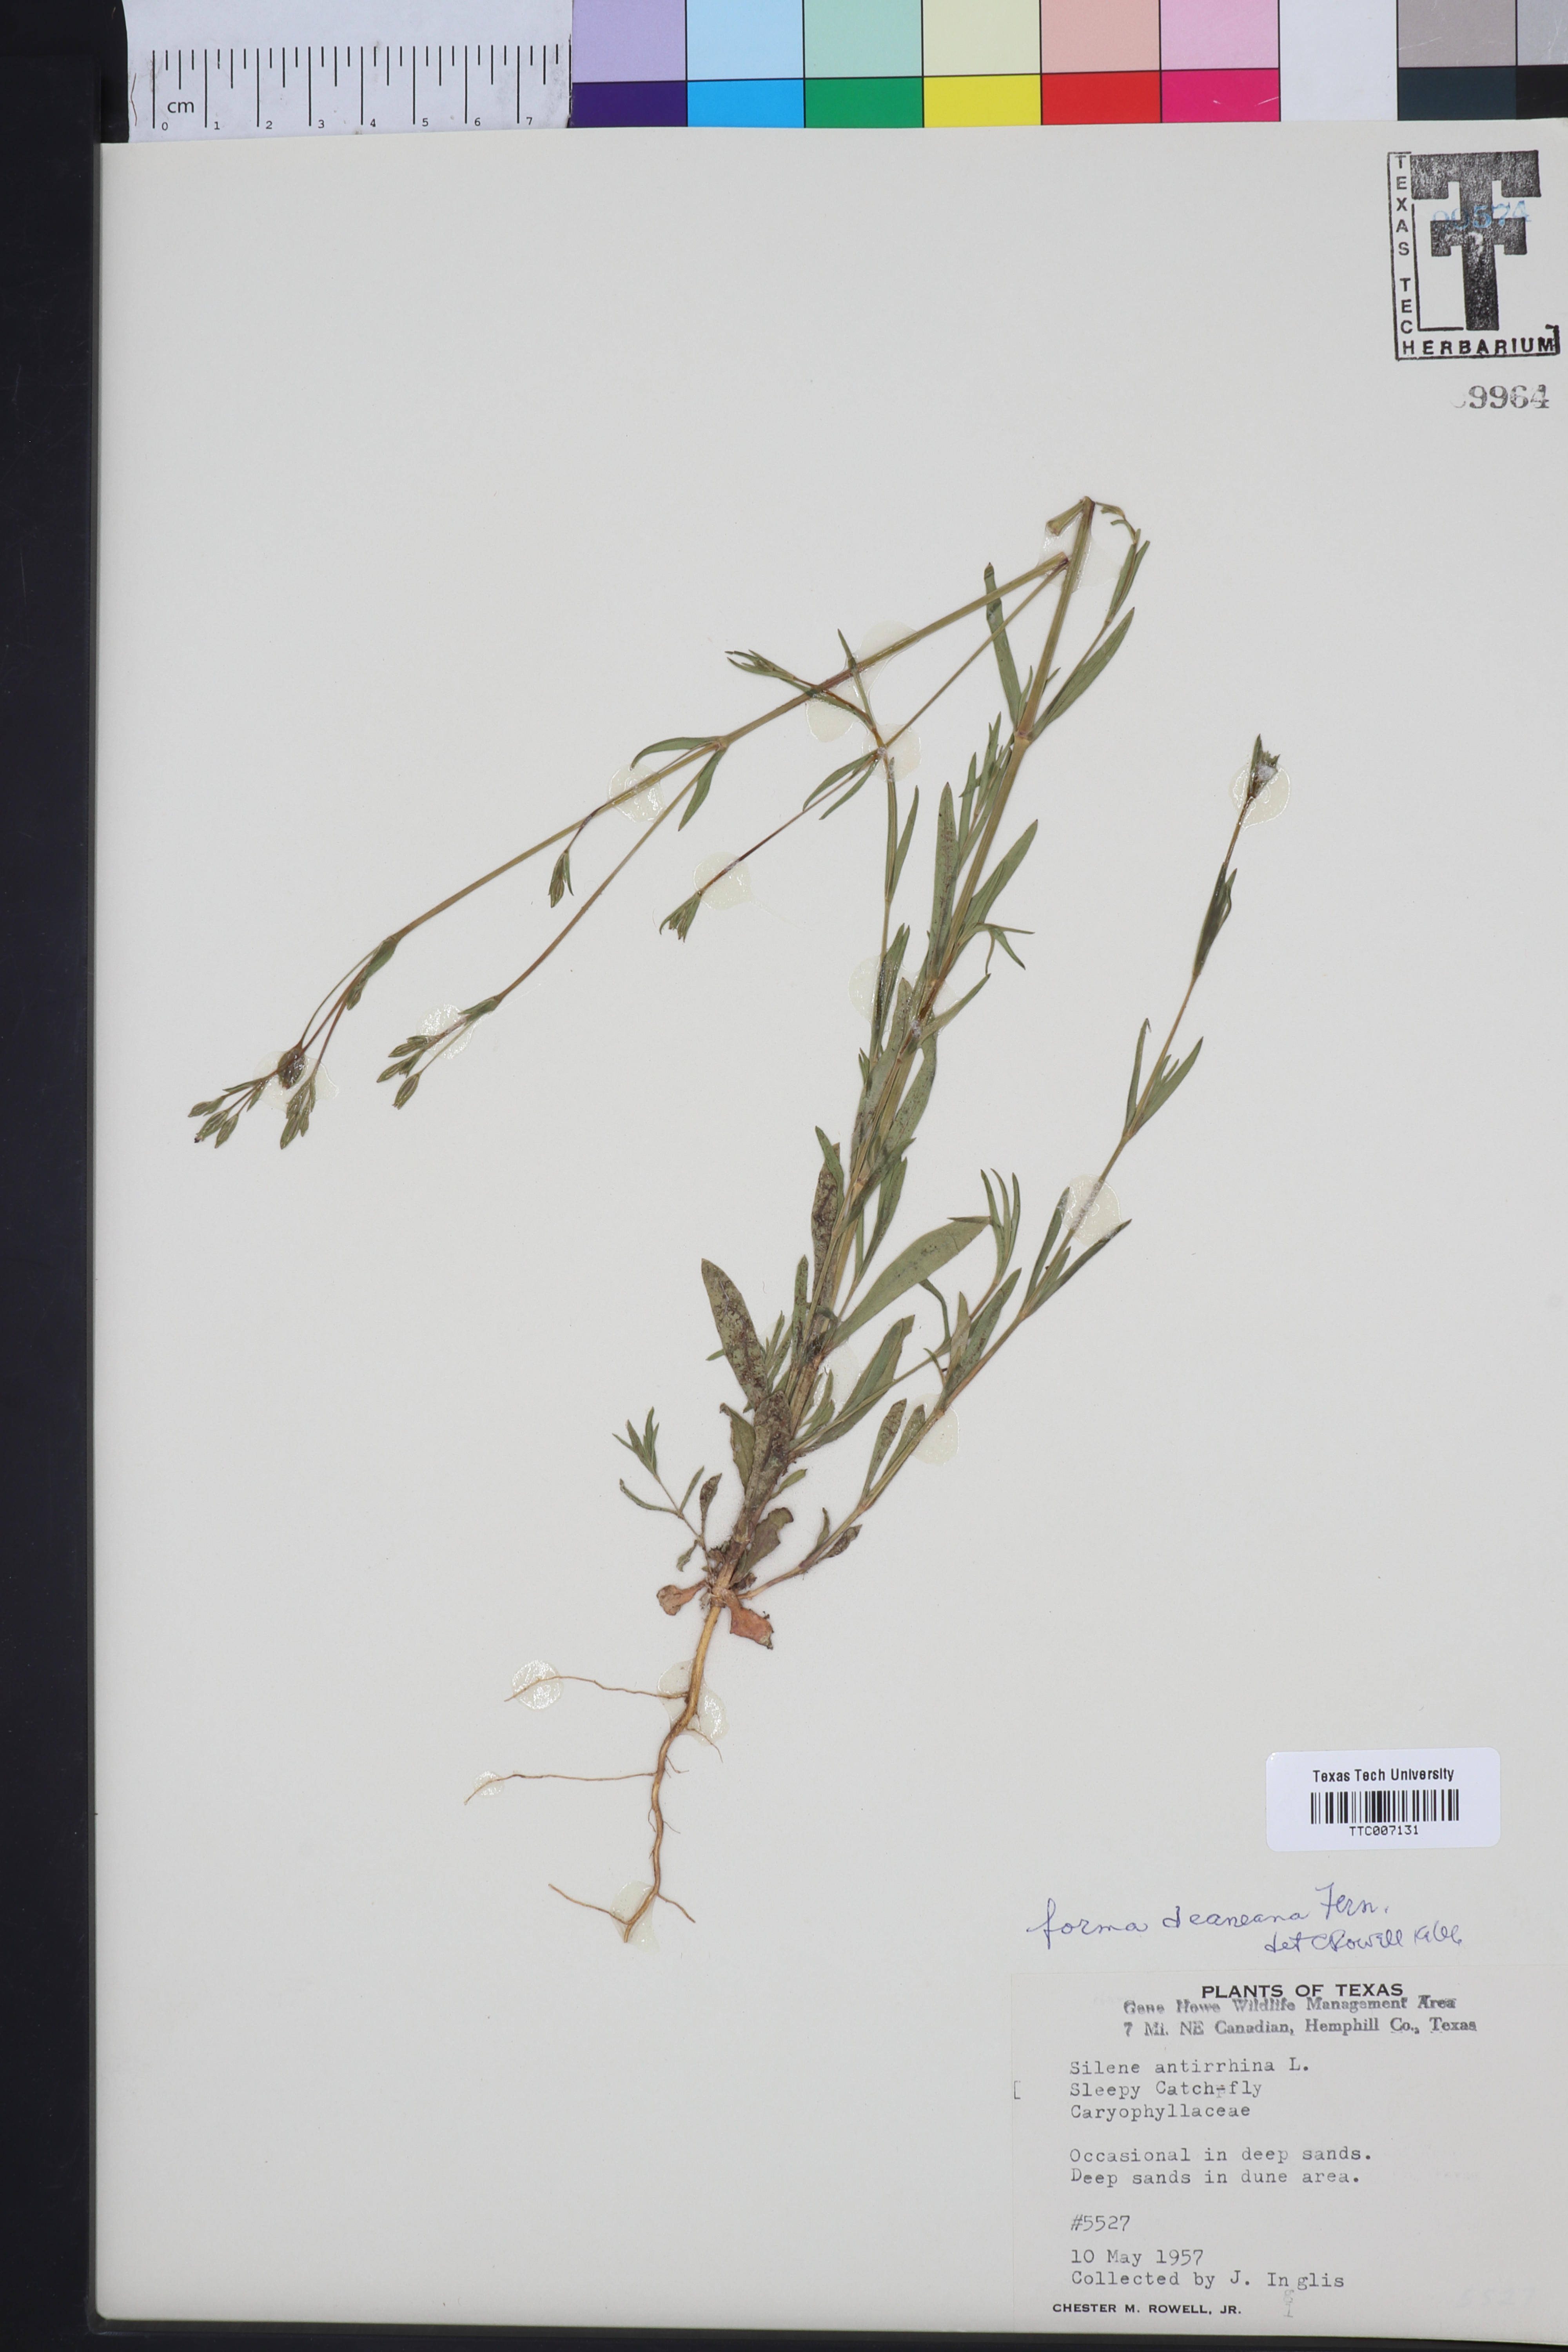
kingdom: Plantae
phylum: Tracheophyta
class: Magnoliopsida
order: Caryophyllales
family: Caryophyllaceae
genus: Silene
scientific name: Silene antirrhina
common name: Sleepy catchfly
